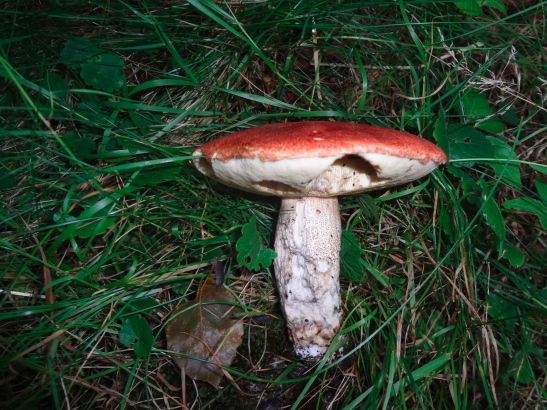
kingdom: Fungi
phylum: Basidiomycota
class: Agaricomycetes
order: Boletales
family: Boletaceae
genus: Leccinum
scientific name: Leccinum aurantiacum
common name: rustrød skælrørhat
